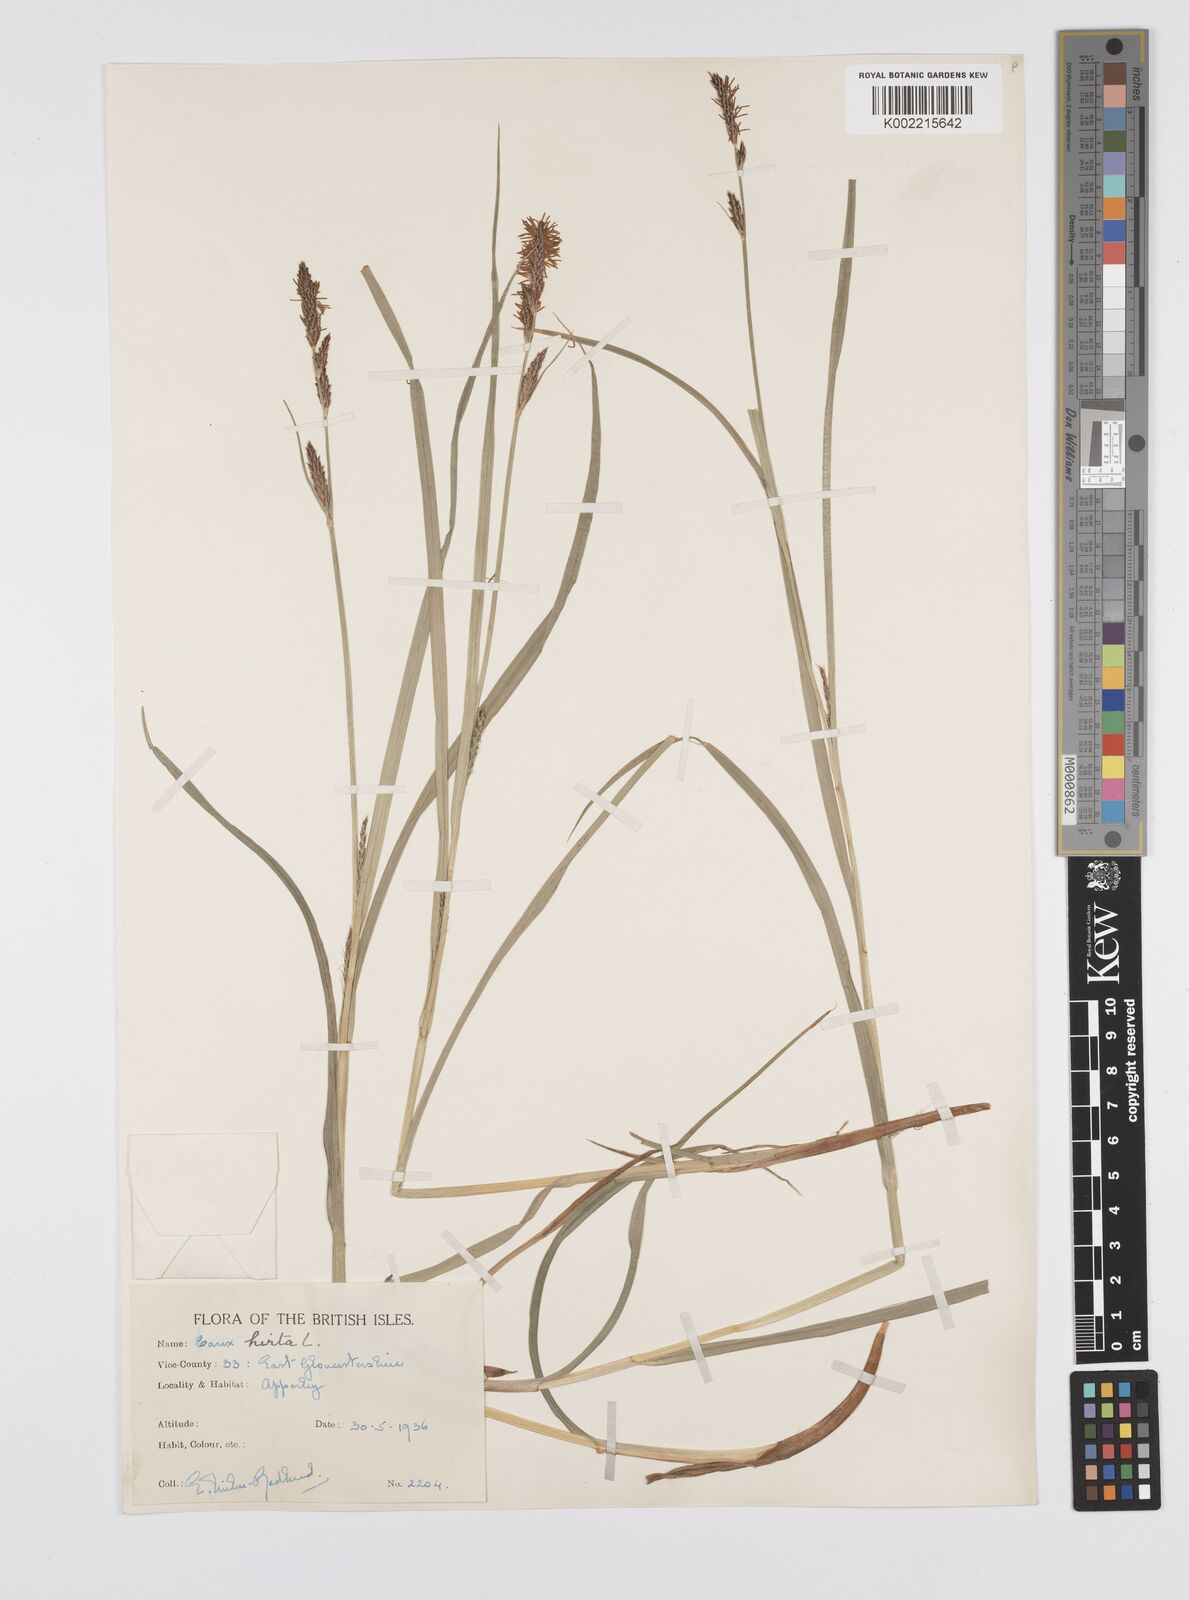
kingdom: Plantae
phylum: Tracheophyta
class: Liliopsida
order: Poales
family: Cyperaceae
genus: Carex
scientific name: Carex hirta
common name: Hairy sedge
